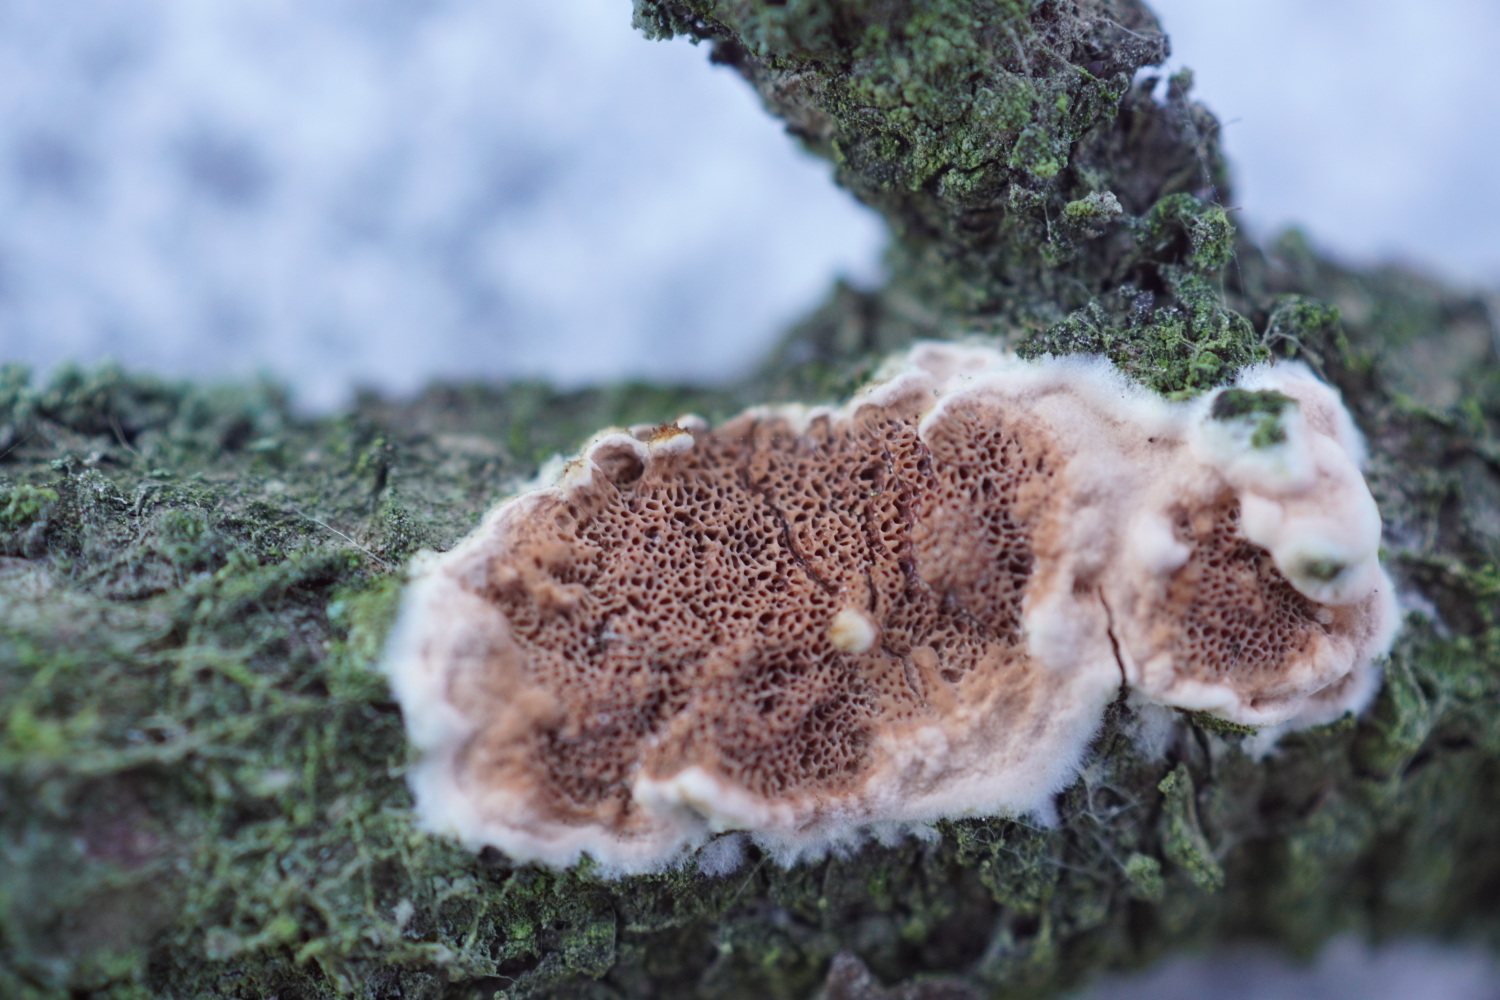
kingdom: Fungi
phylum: Basidiomycota
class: Agaricomycetes
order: Polyporales
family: Irpicaceae
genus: Meruliopsis
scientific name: Meruliopsis taxicola
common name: purpurbrun foldporesvamp
